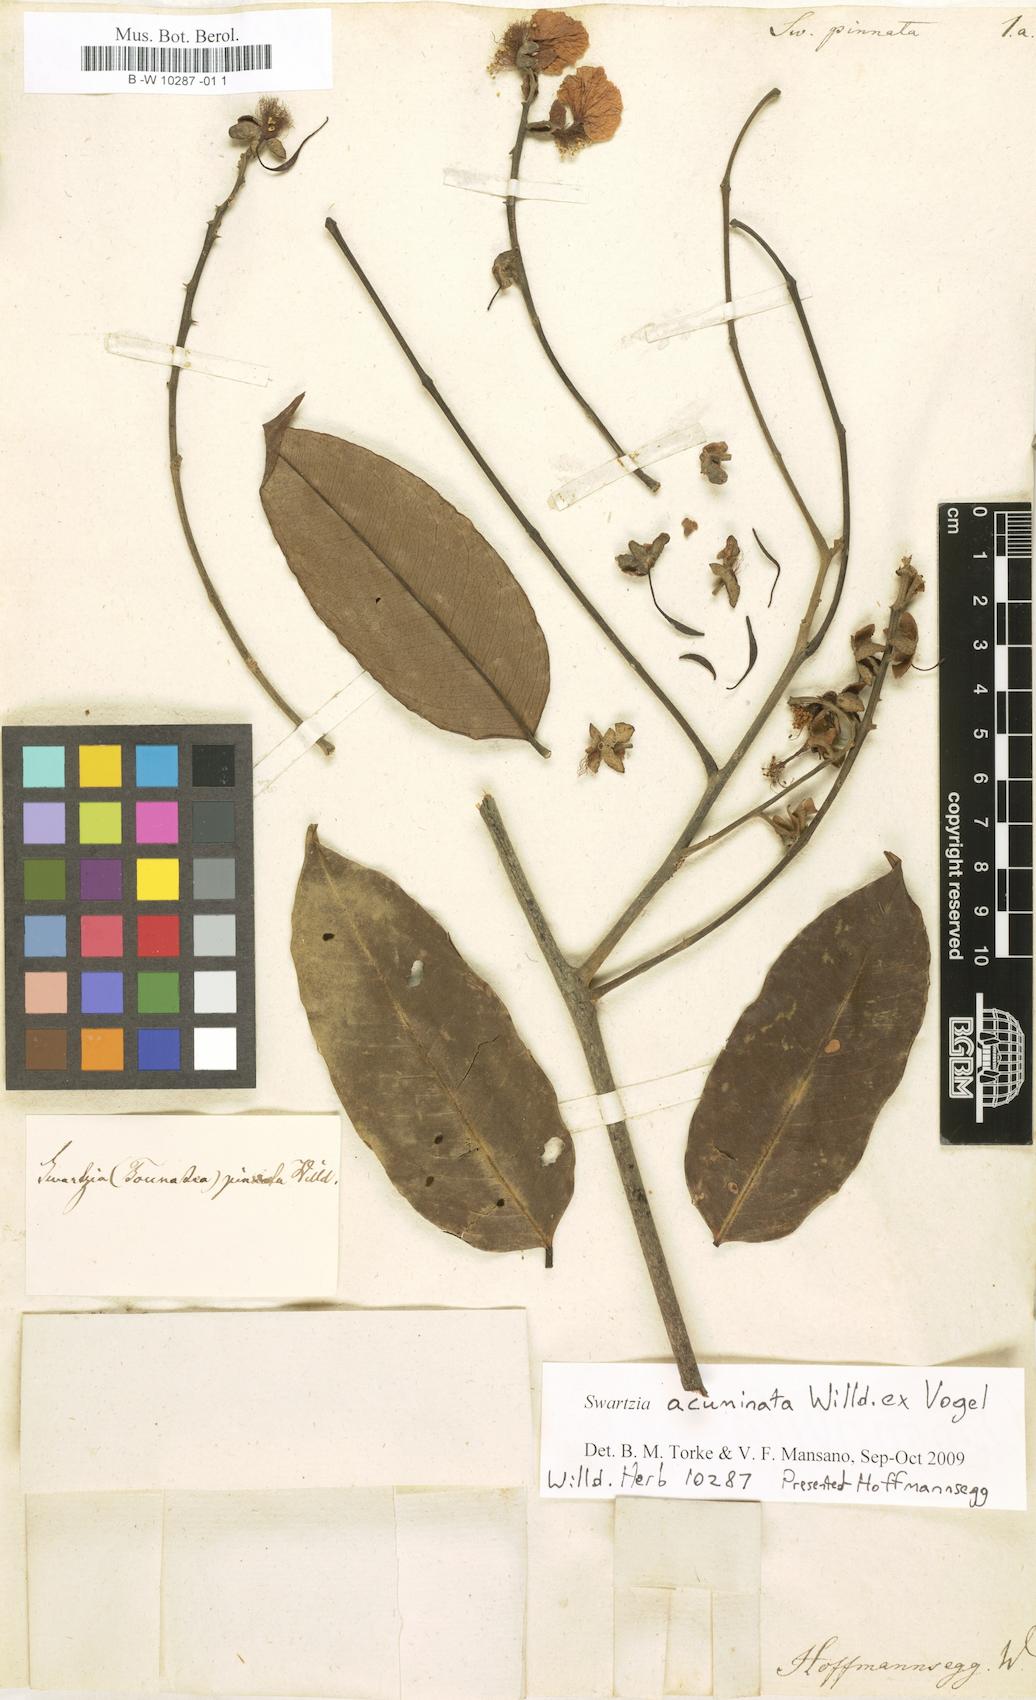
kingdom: Plantae
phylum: Tracheophyta
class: Magnoliopsida
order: Fabales
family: Fabaceae
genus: Swartzia
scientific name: Swartzia pinnata
